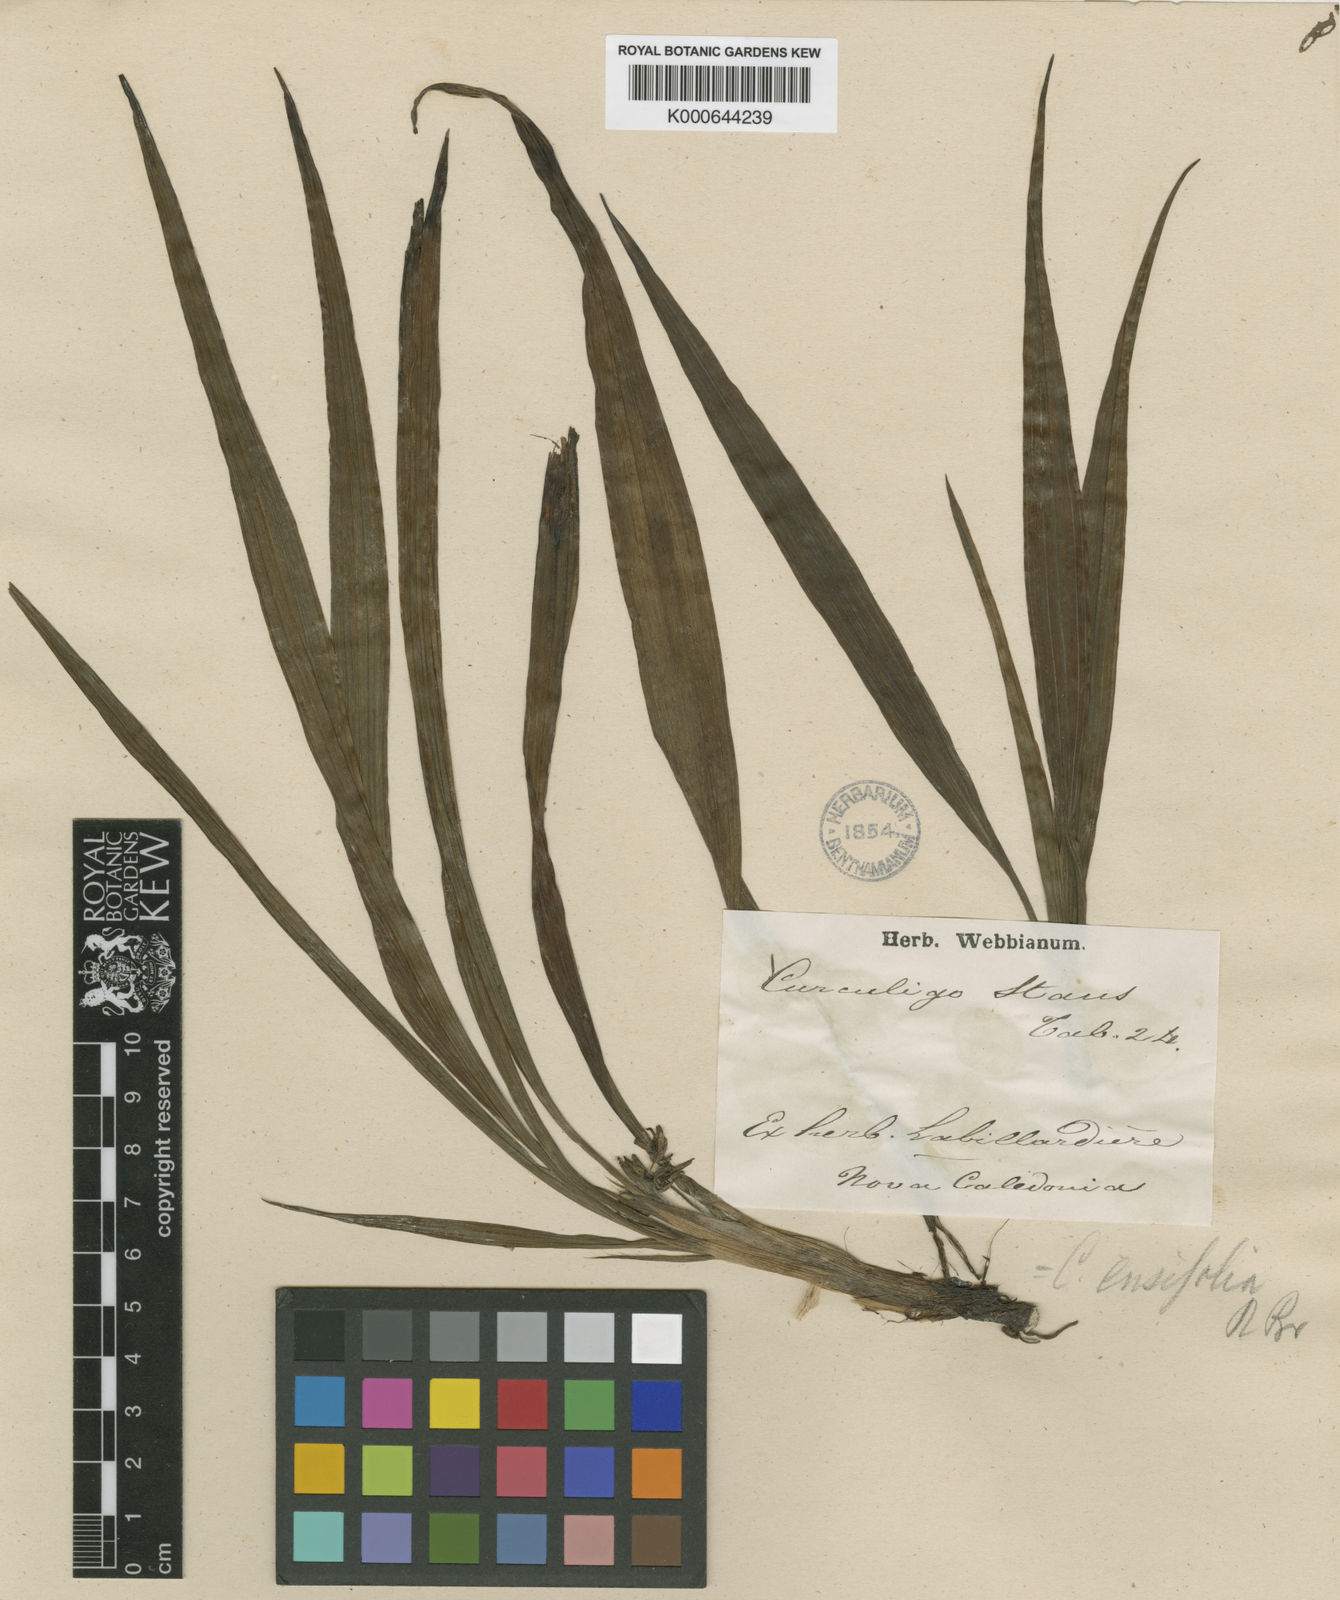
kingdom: Plantae
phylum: Tracheophyta
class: Liliopsida
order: Asparagales
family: Hypoxidaceae
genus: Curculigo
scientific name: Curculigo
